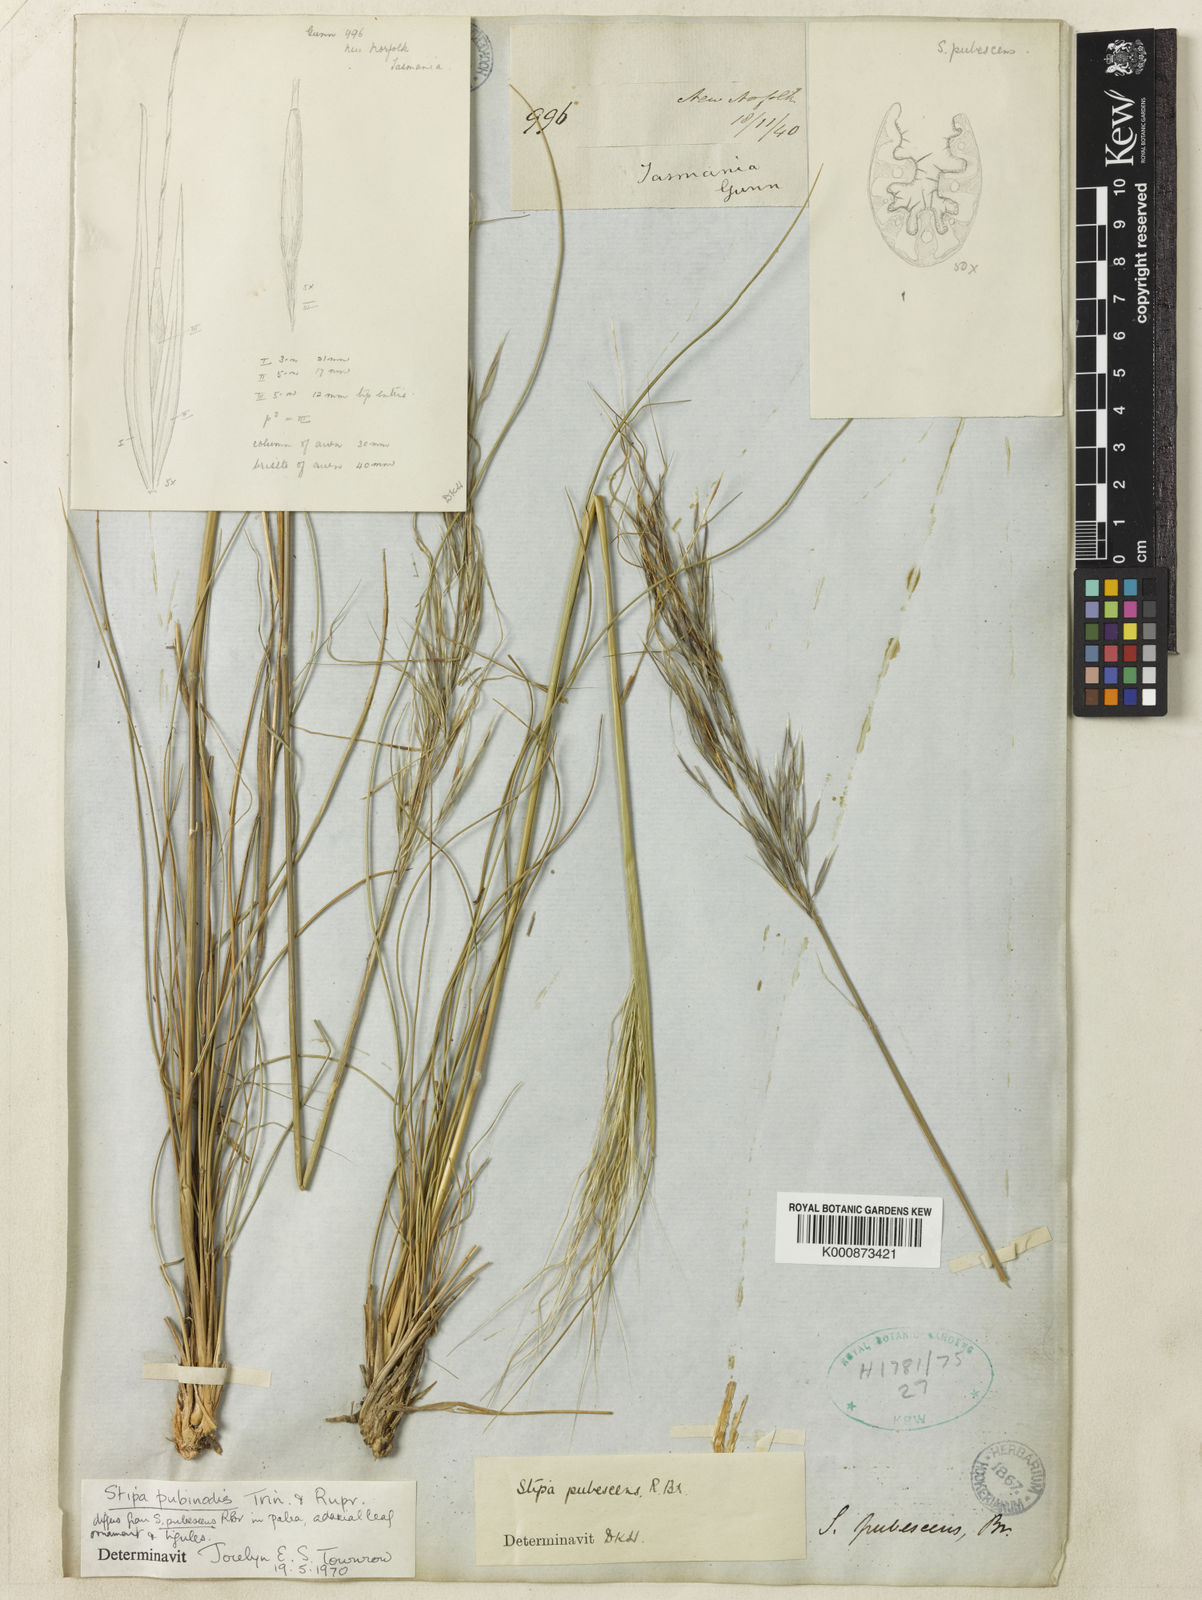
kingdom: Plantae
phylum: Tracheophyta
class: Liliopsida
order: Poales
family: Poaceae
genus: Austrostipa
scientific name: Austrostipa pubinodis
